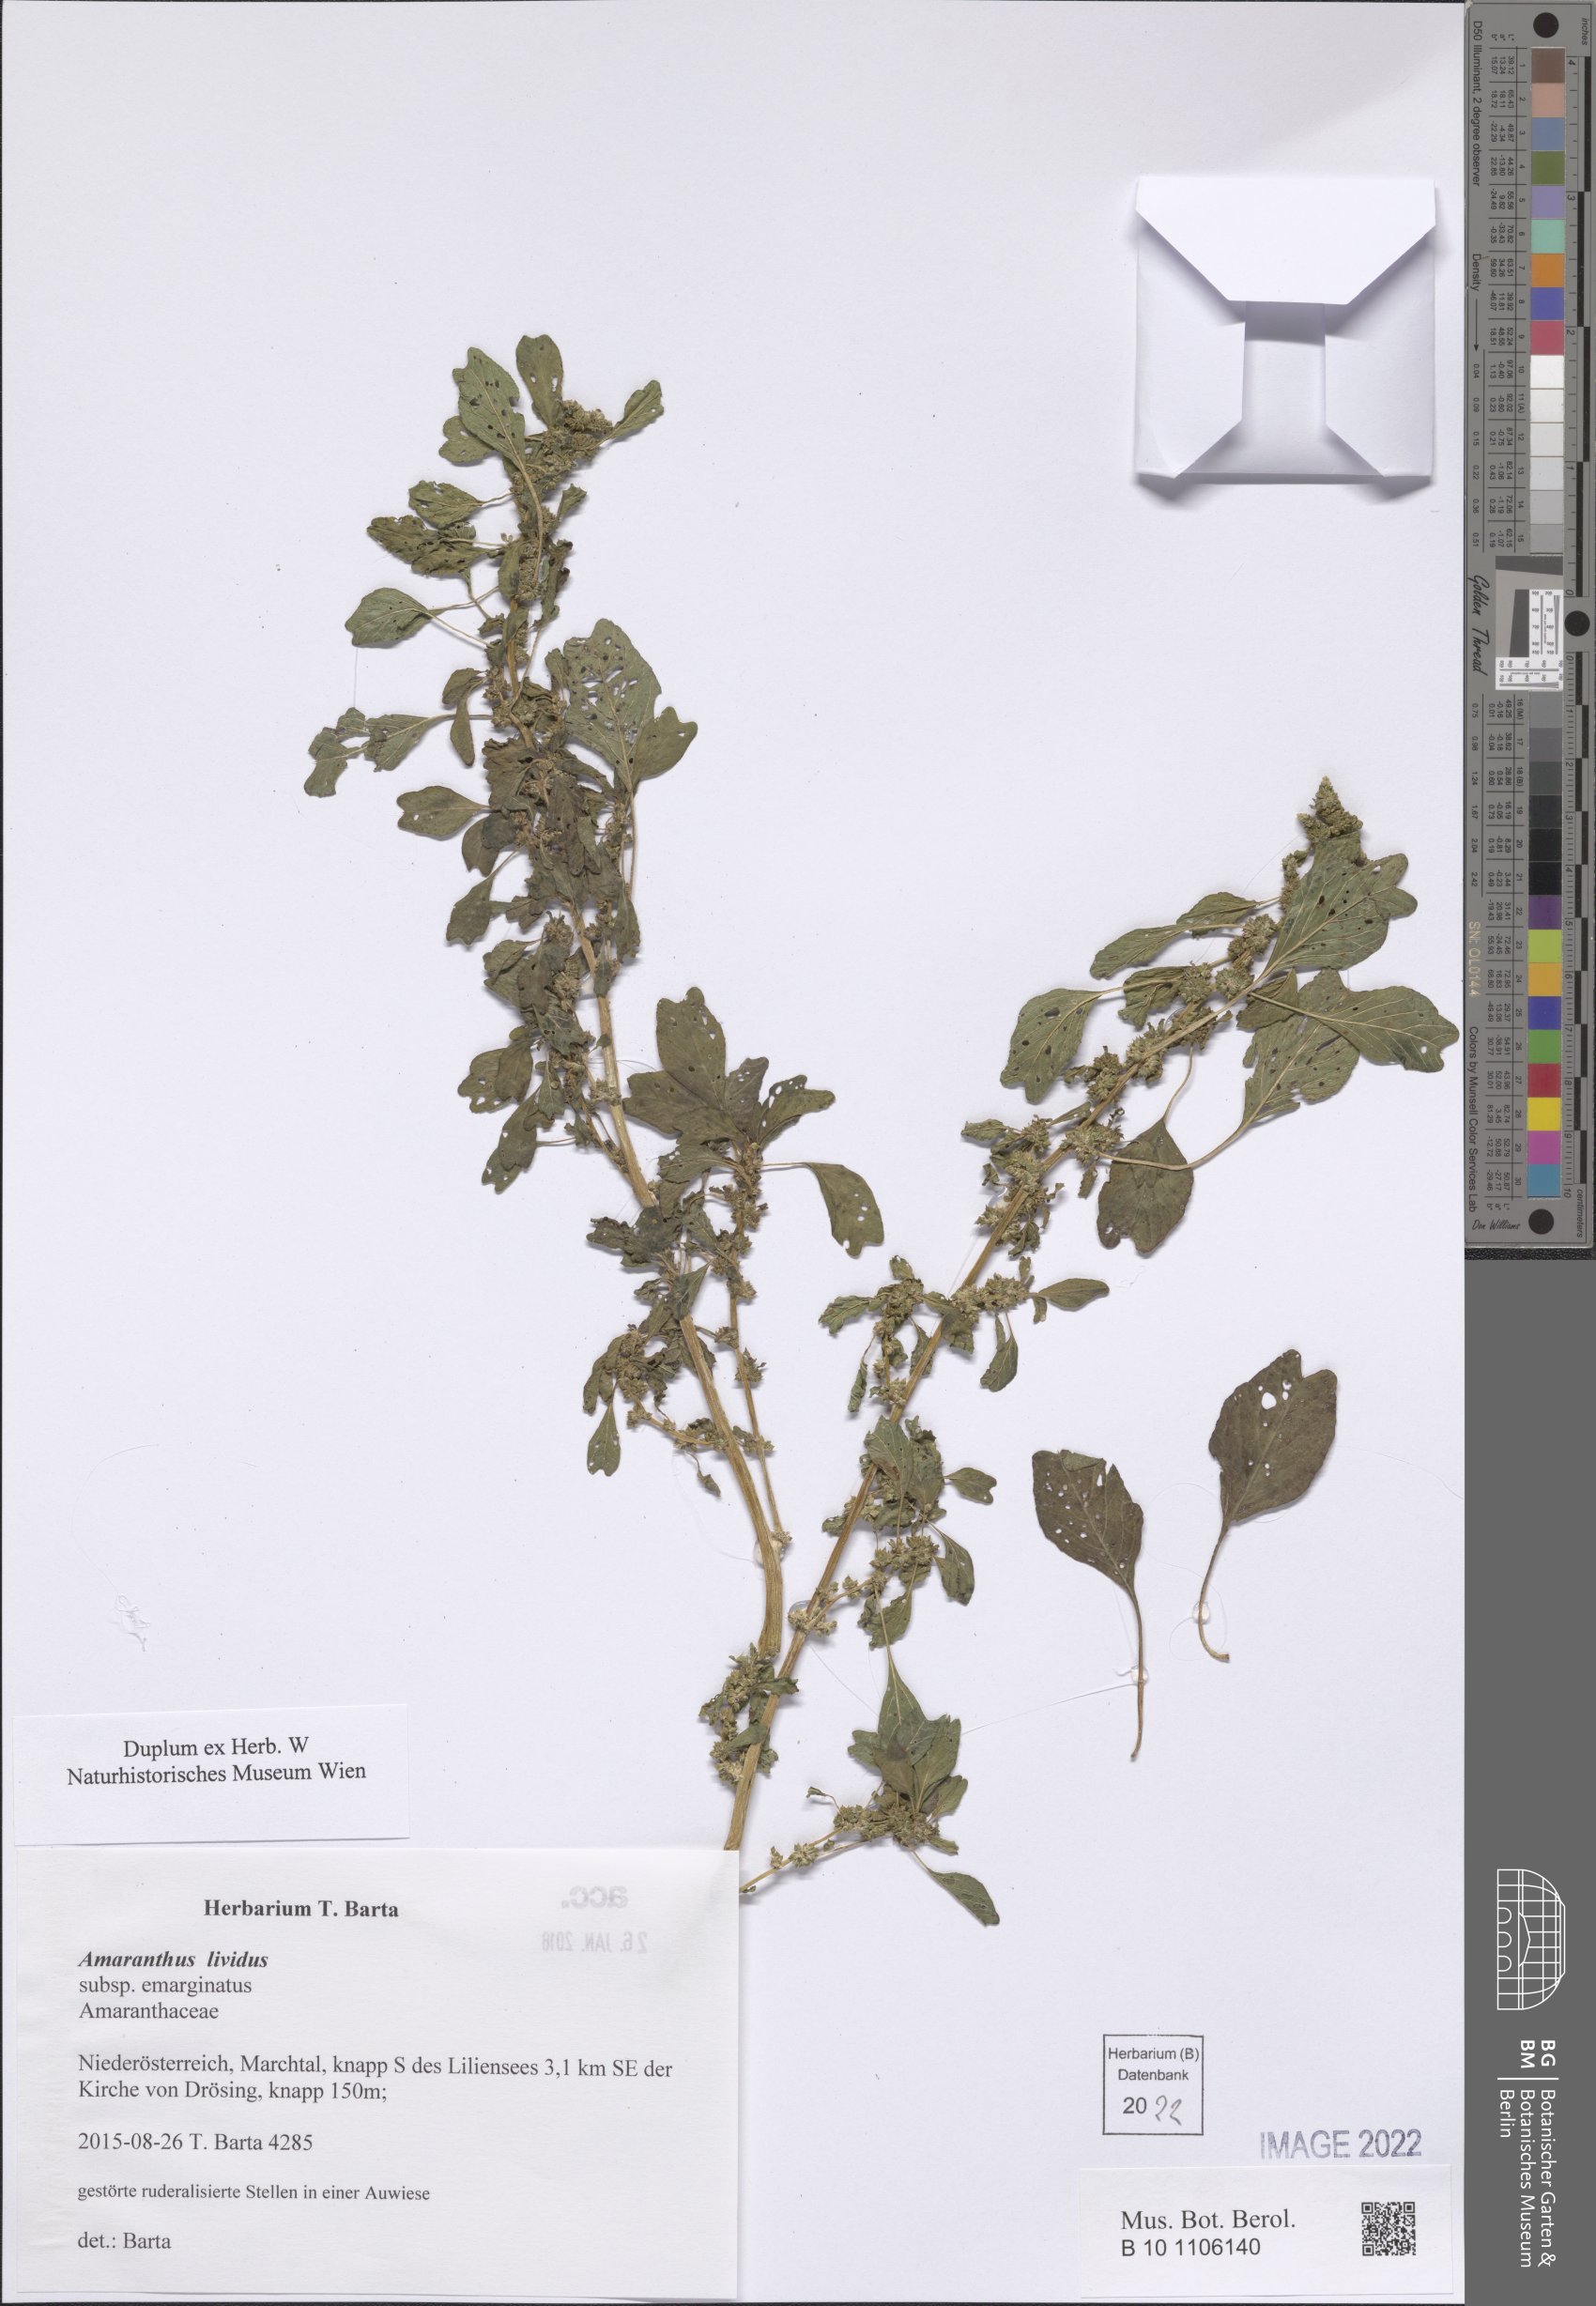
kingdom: Plantae
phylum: Tracheophyta
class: Magnoliopsida
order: Caryophyllales
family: Amaranthaceae
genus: Amaranthus
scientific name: Amaranthus emarginatus
